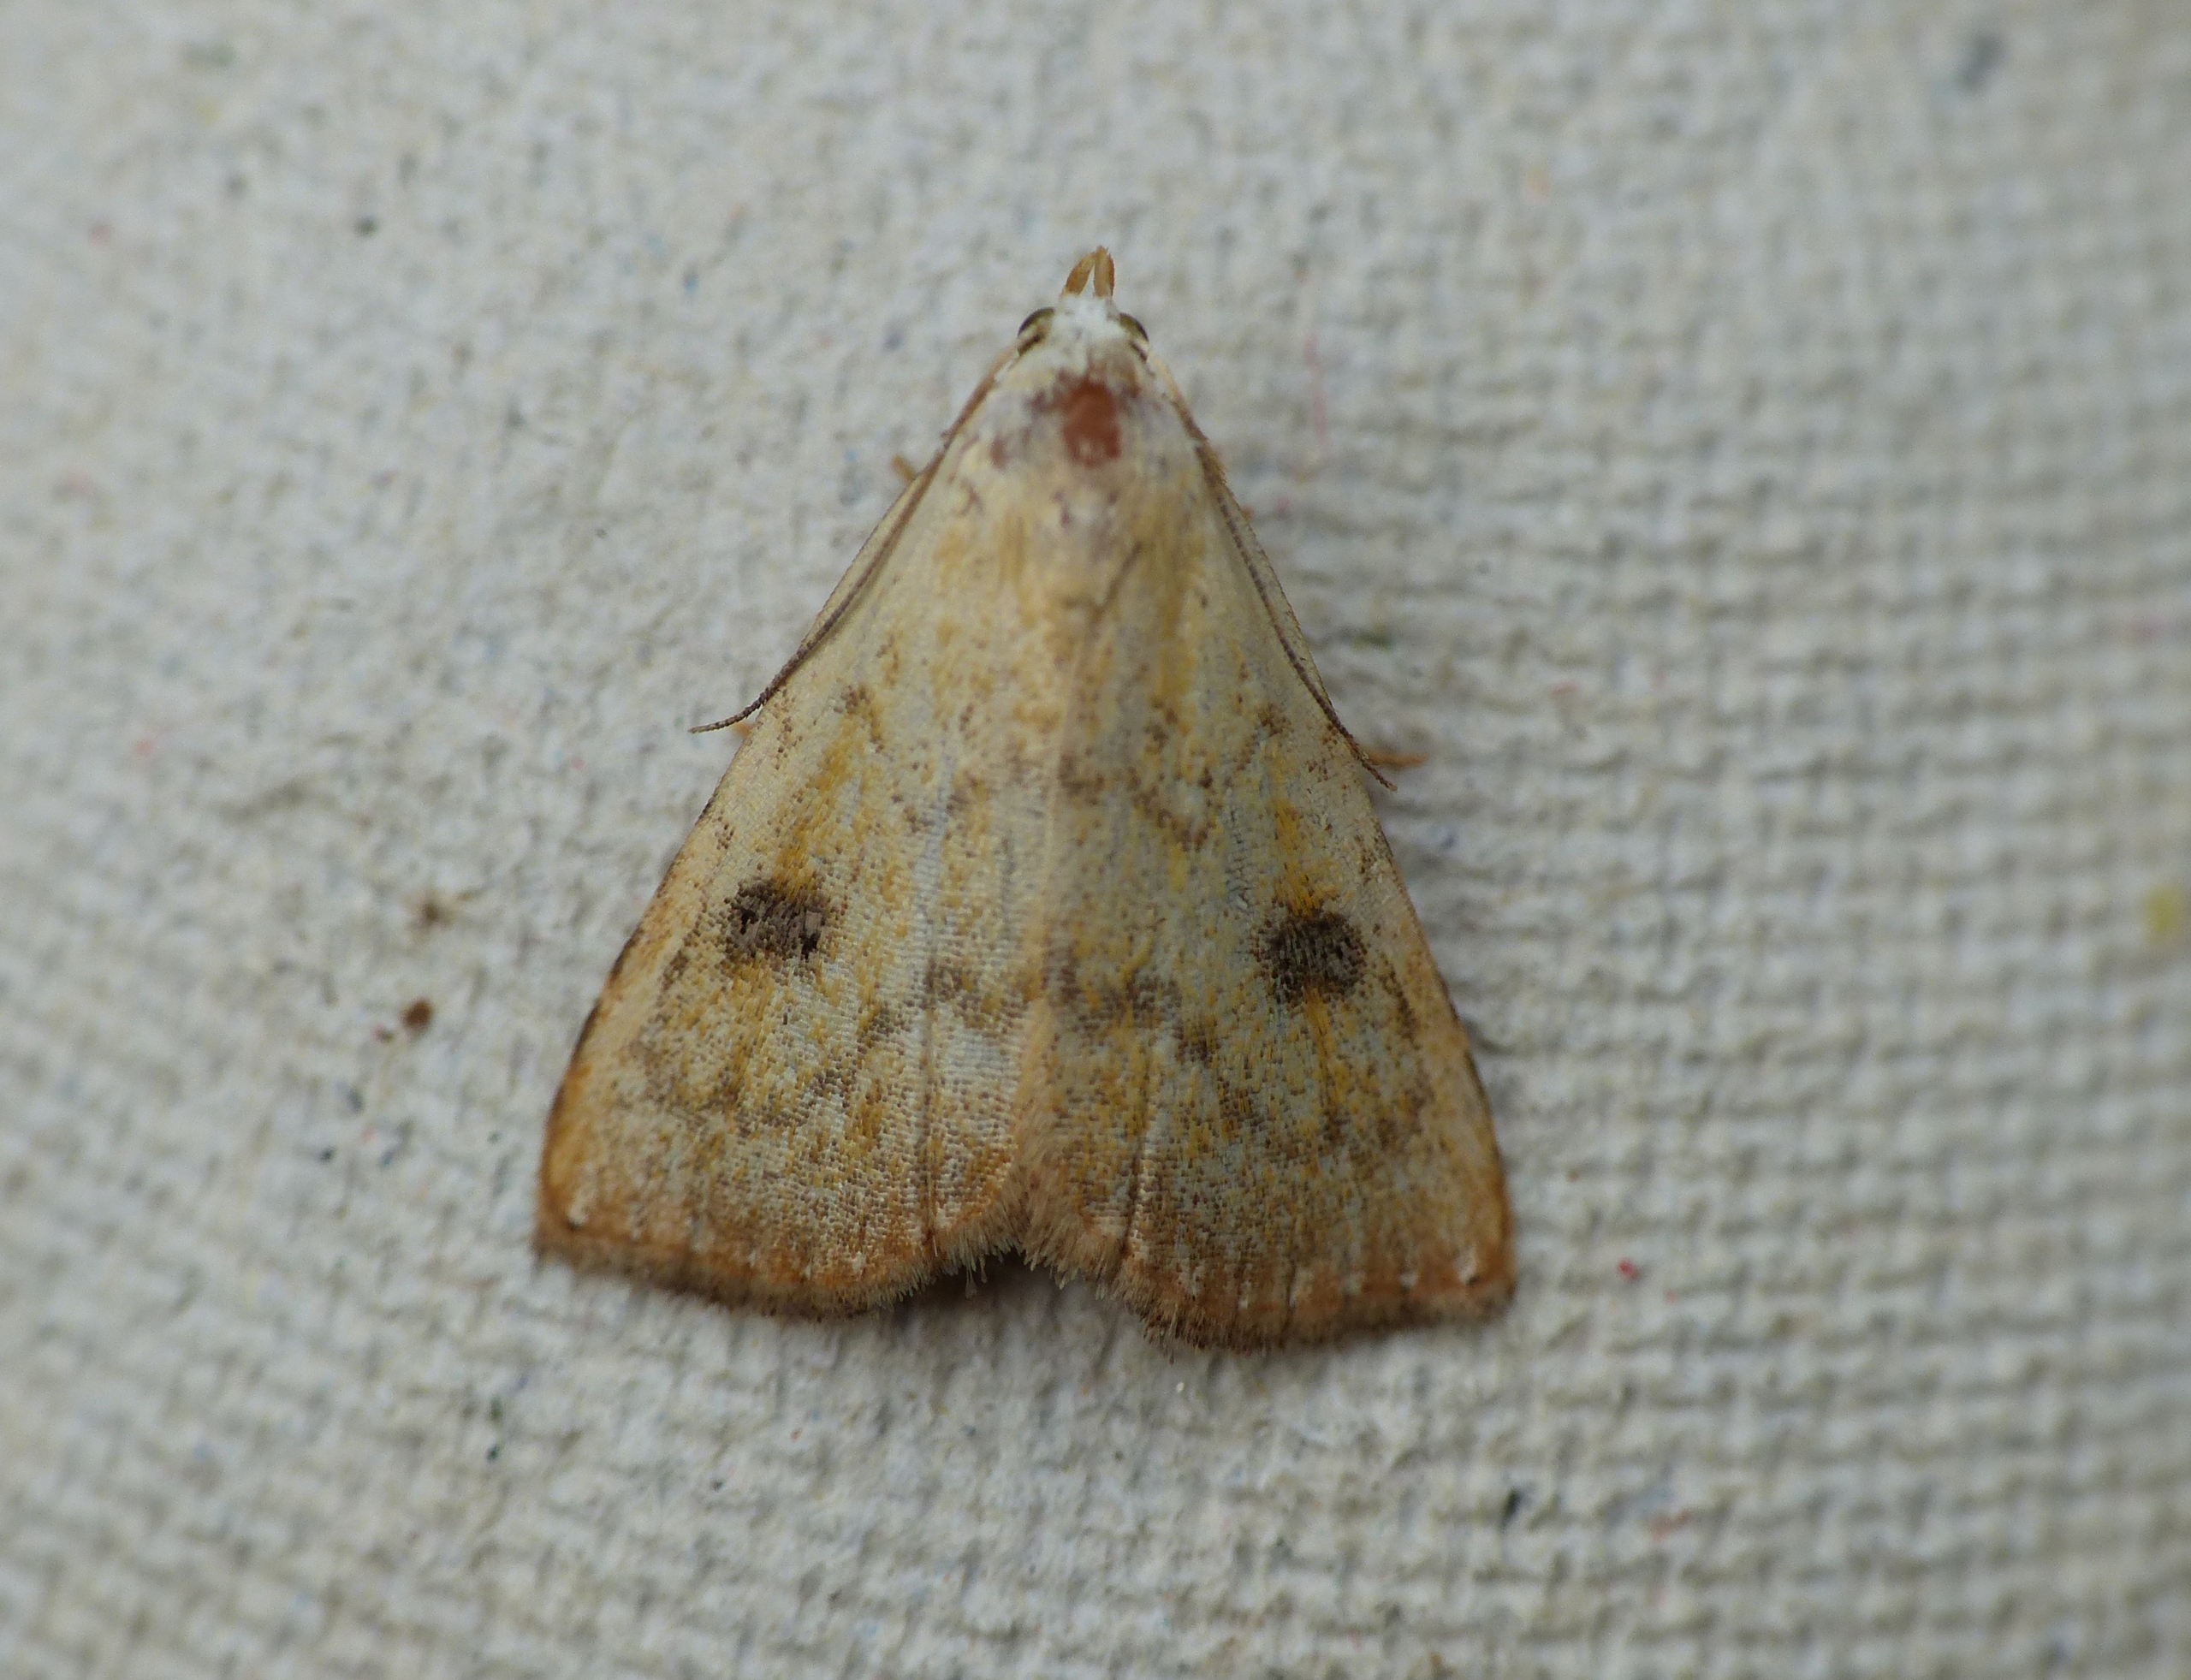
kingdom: Animalia
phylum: Arthropoda
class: Insecta
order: Lepidoptera
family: Erebidae
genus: Rivula
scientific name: Rivula sericealis
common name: Lille å-ugle
